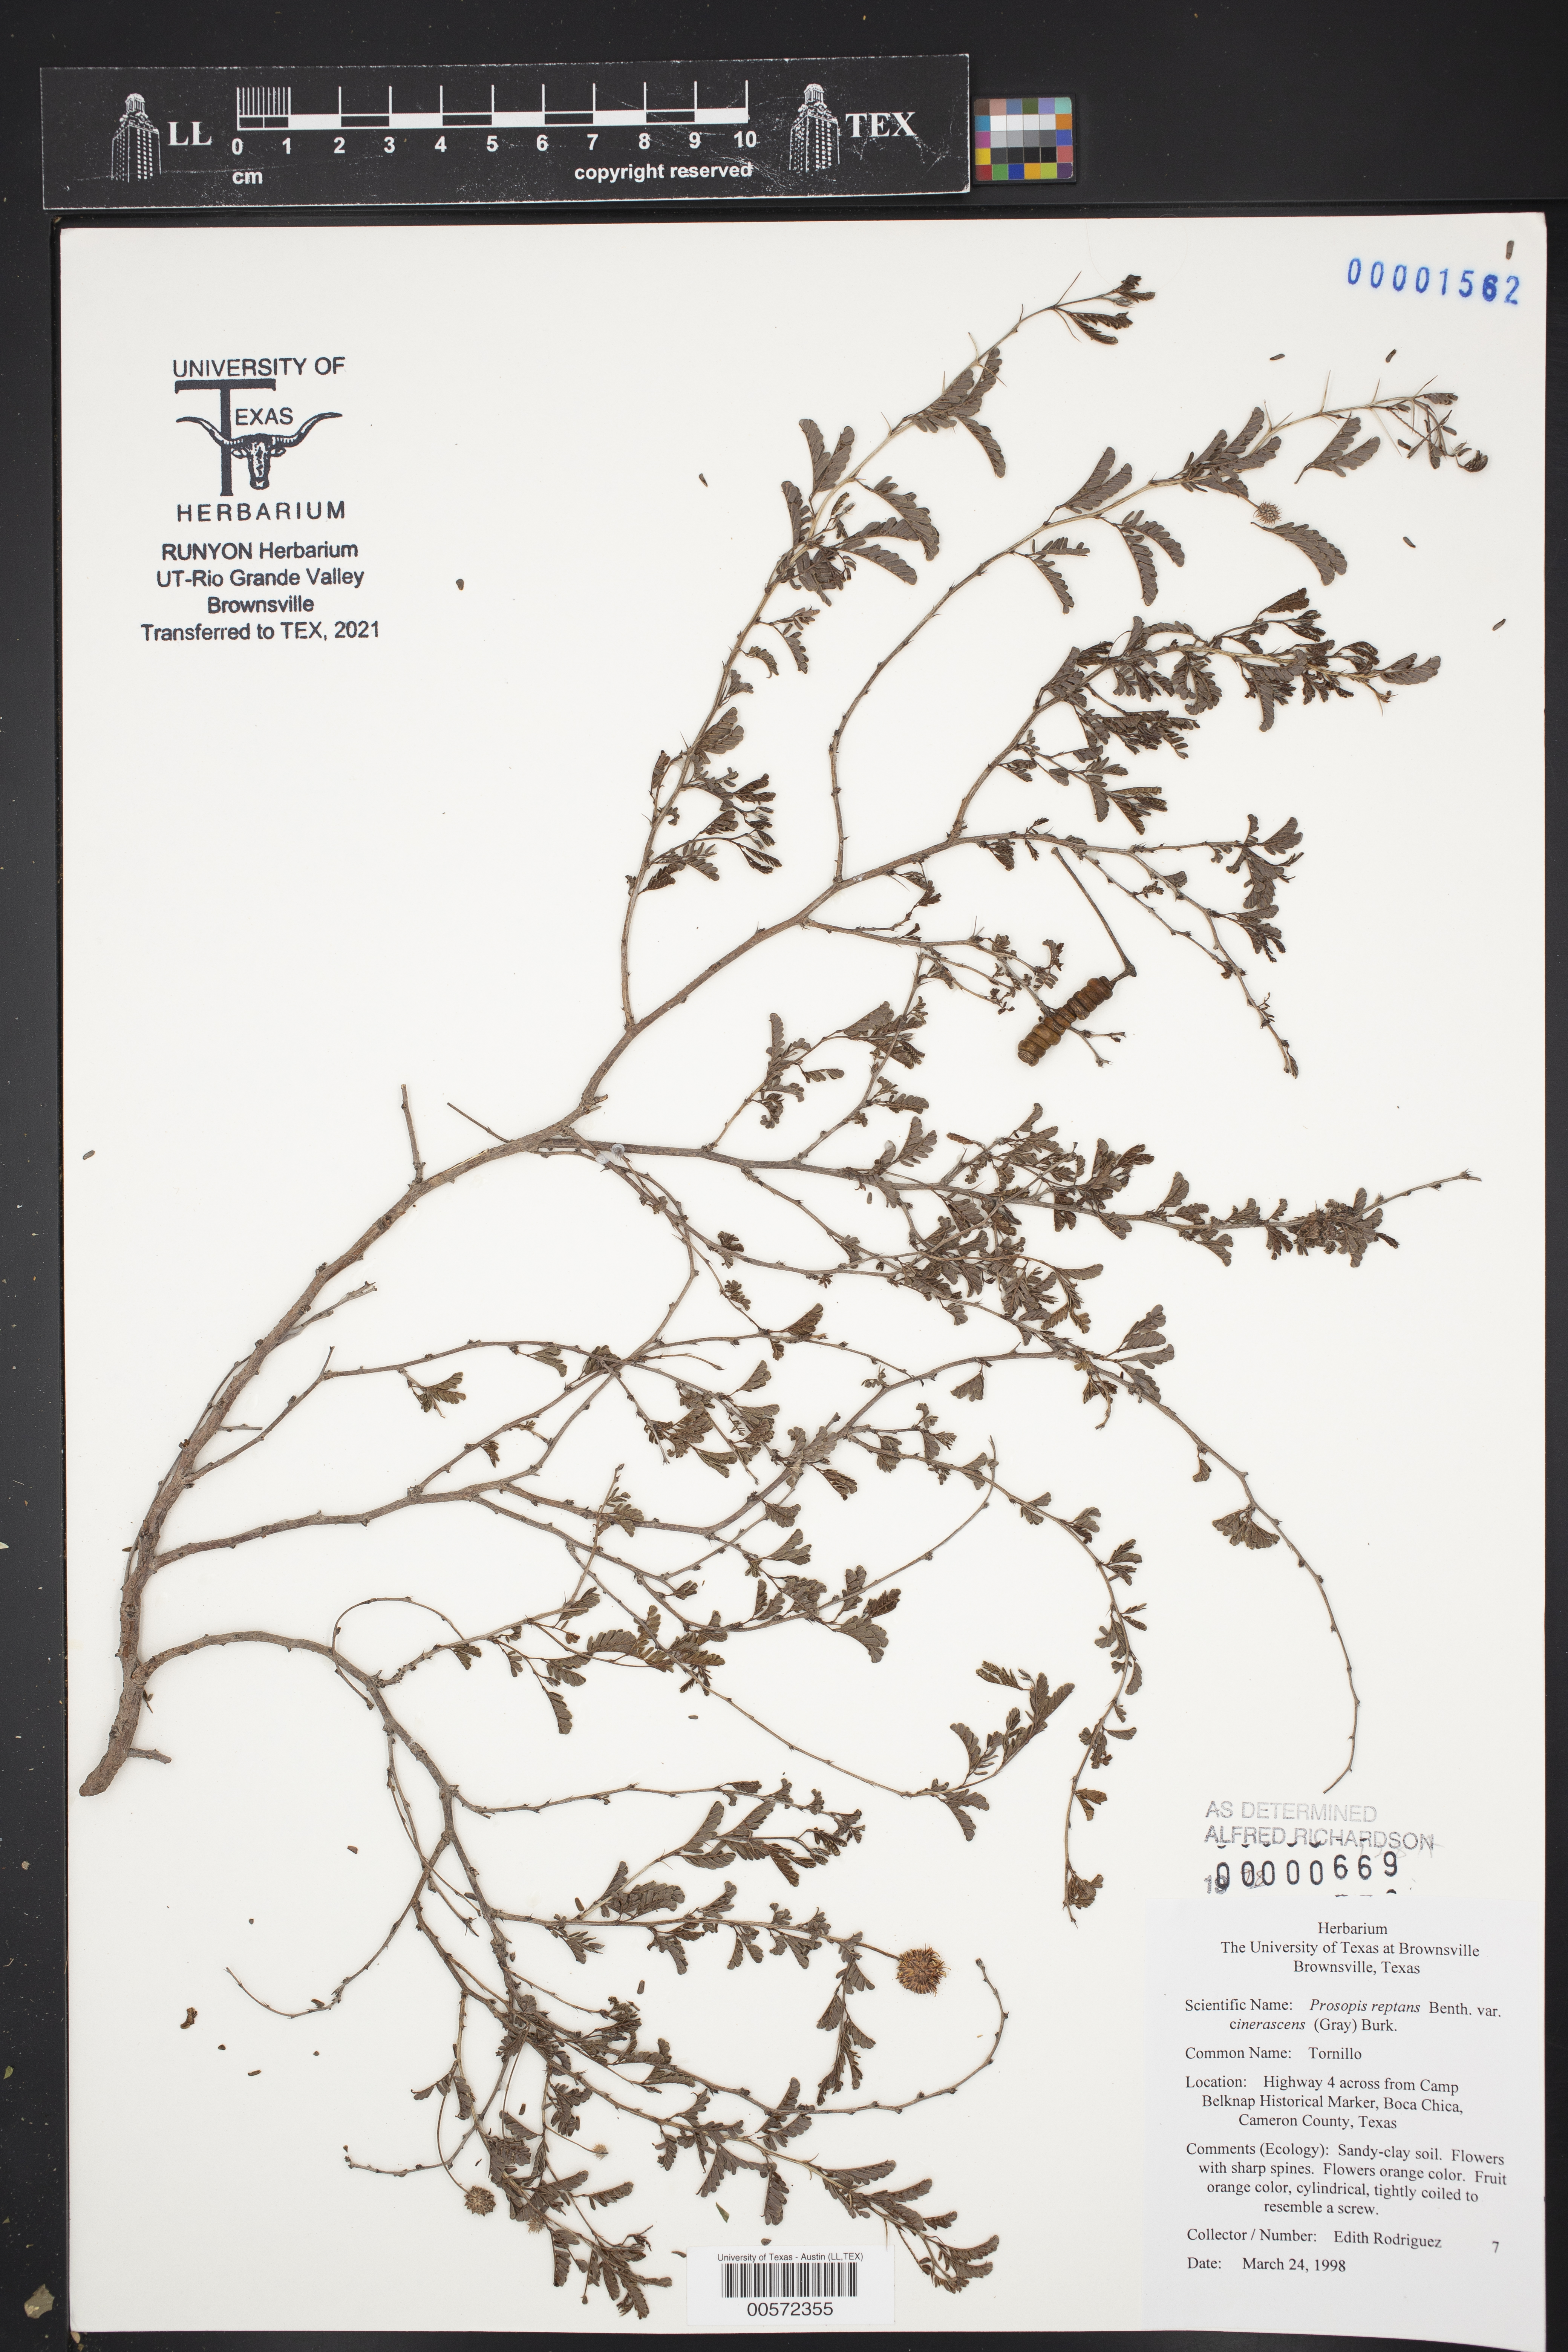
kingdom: Plantae
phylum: Tracheophyta
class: Magnoliopsida
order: Fabales
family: Fabaceae
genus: Prosopis
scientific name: Prosopis cinerascens
